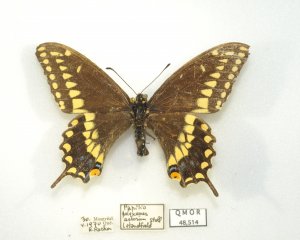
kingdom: Animalia
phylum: Arthropoda
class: Insecta
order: Lepidoptera
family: Papilionidae
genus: Papilio
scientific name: Papilio polyxenes
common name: Black Swallowtail
